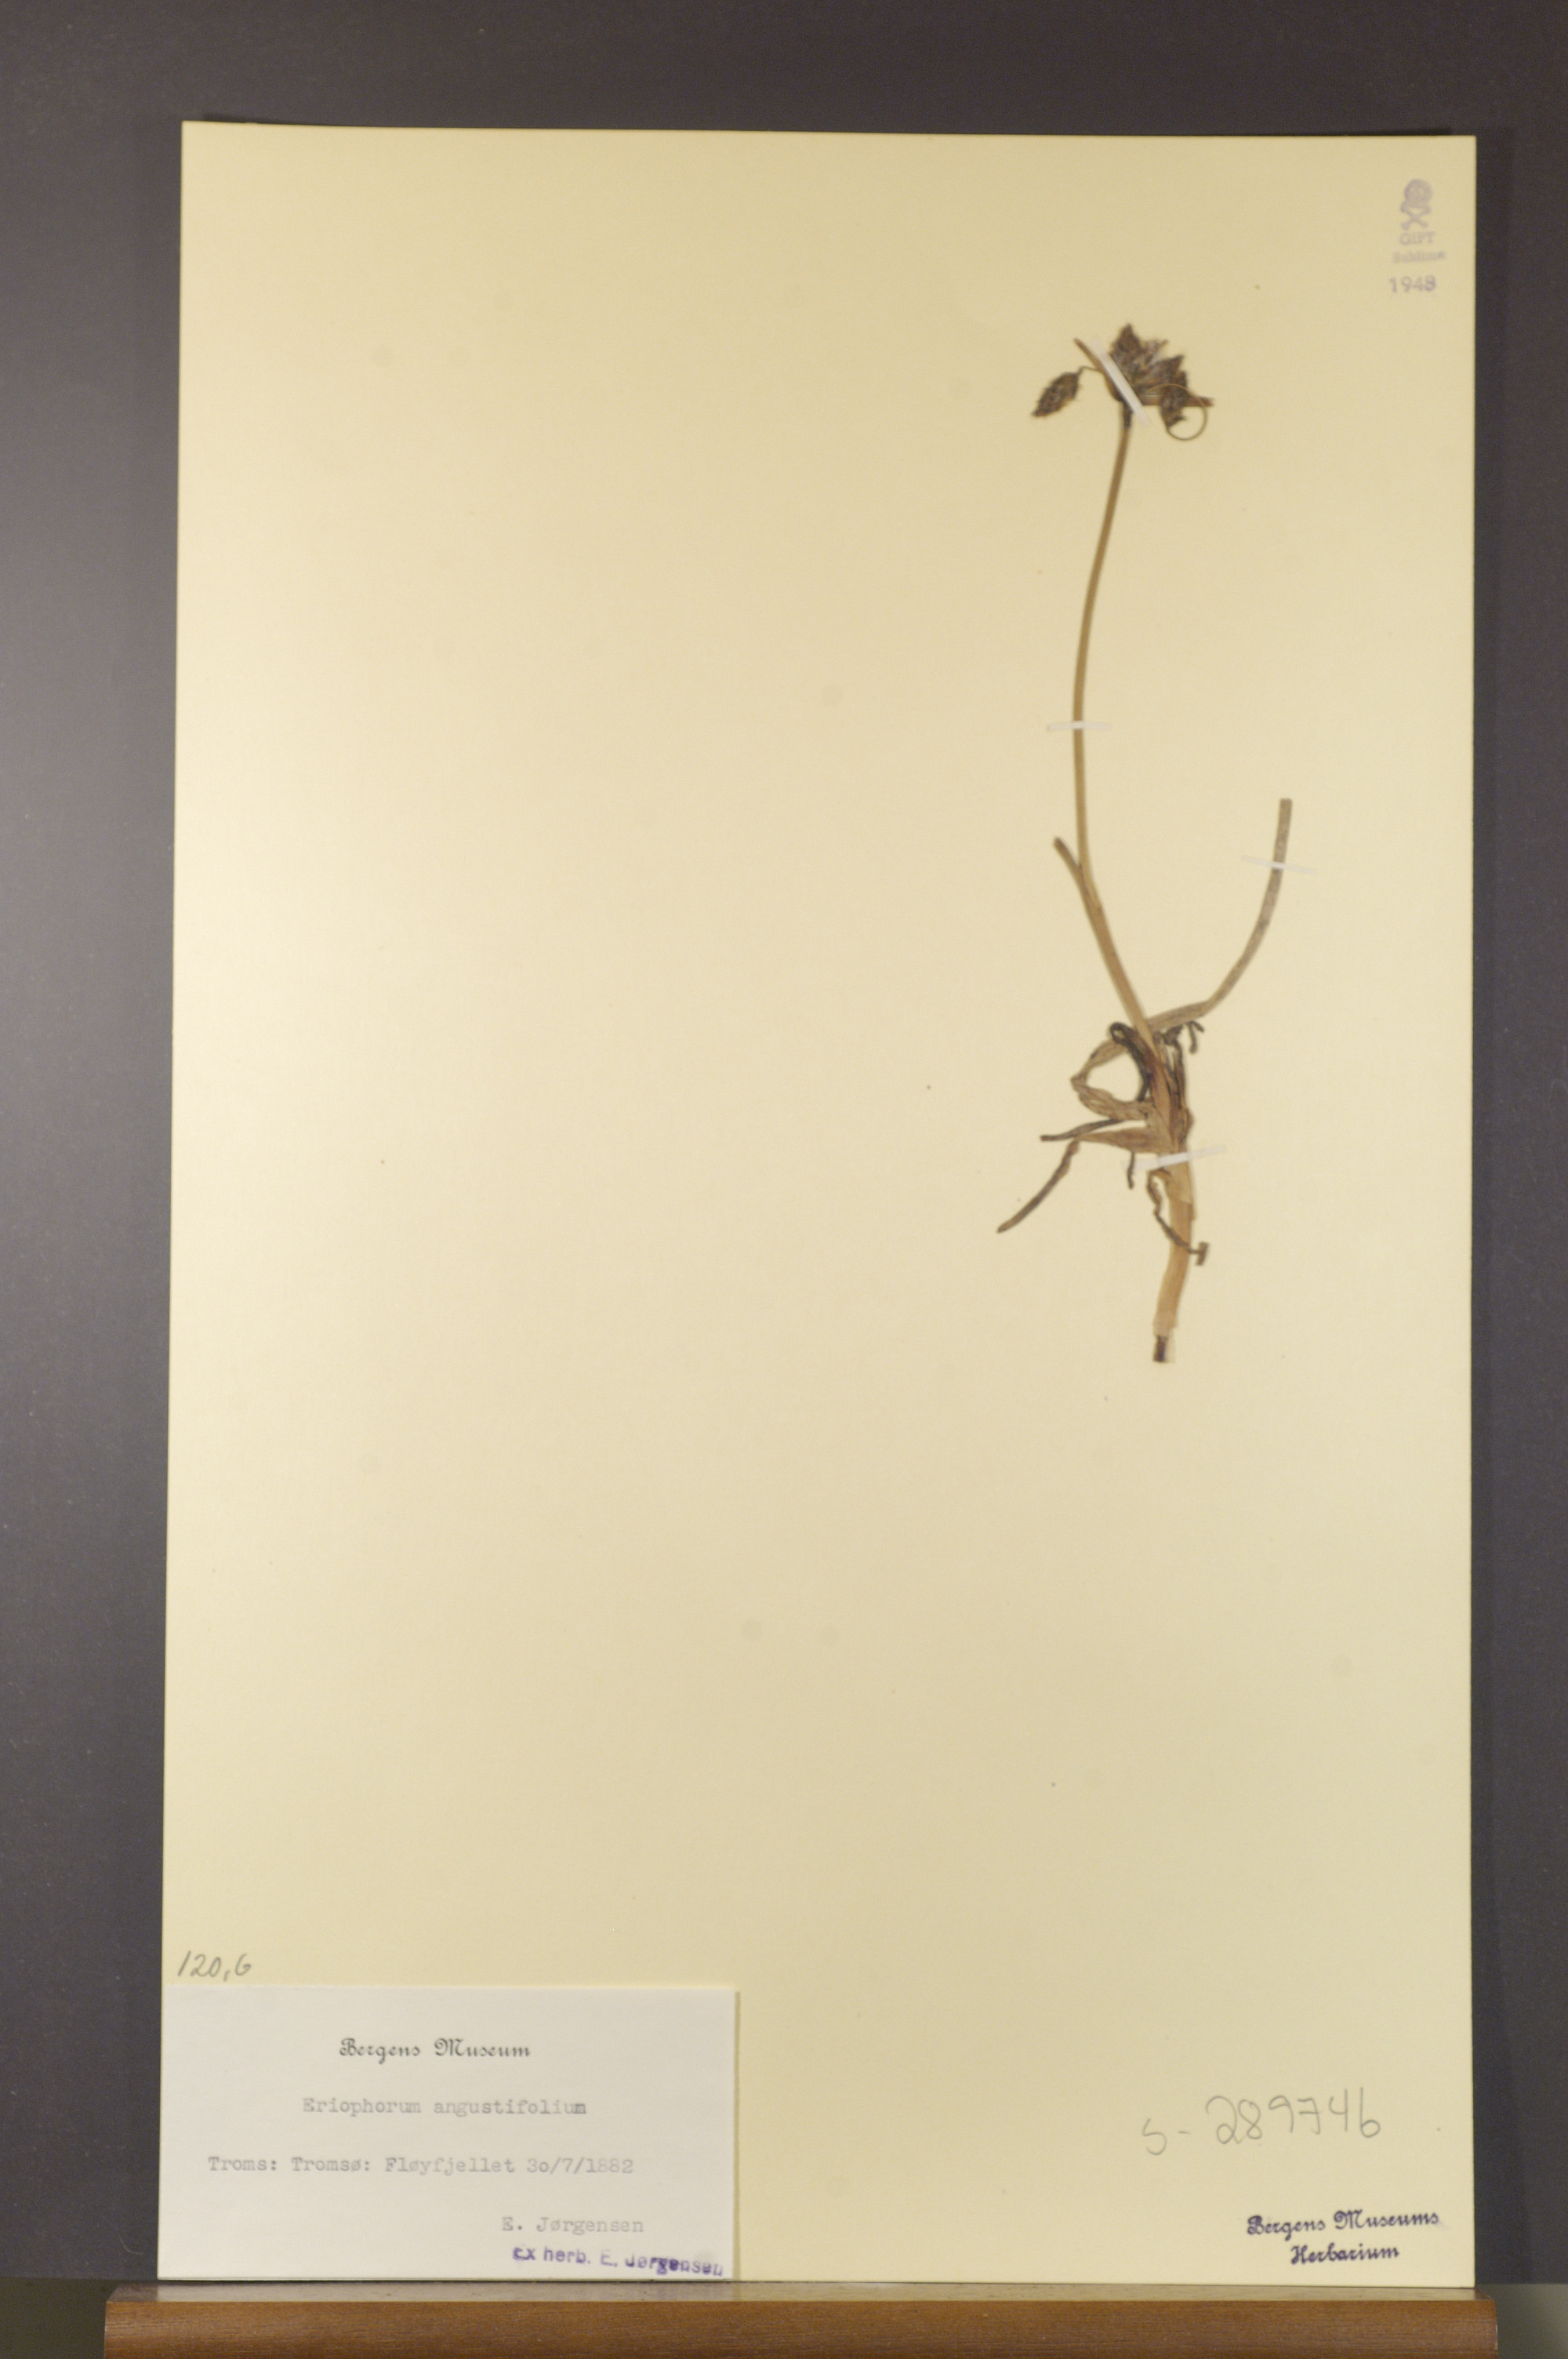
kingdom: Plantae
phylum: Tracheophyta
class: Liliopsida
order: Poales
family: Cyperaceae
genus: Eriophorum
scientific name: Eriophorum angustifolium
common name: Common cottongrass
